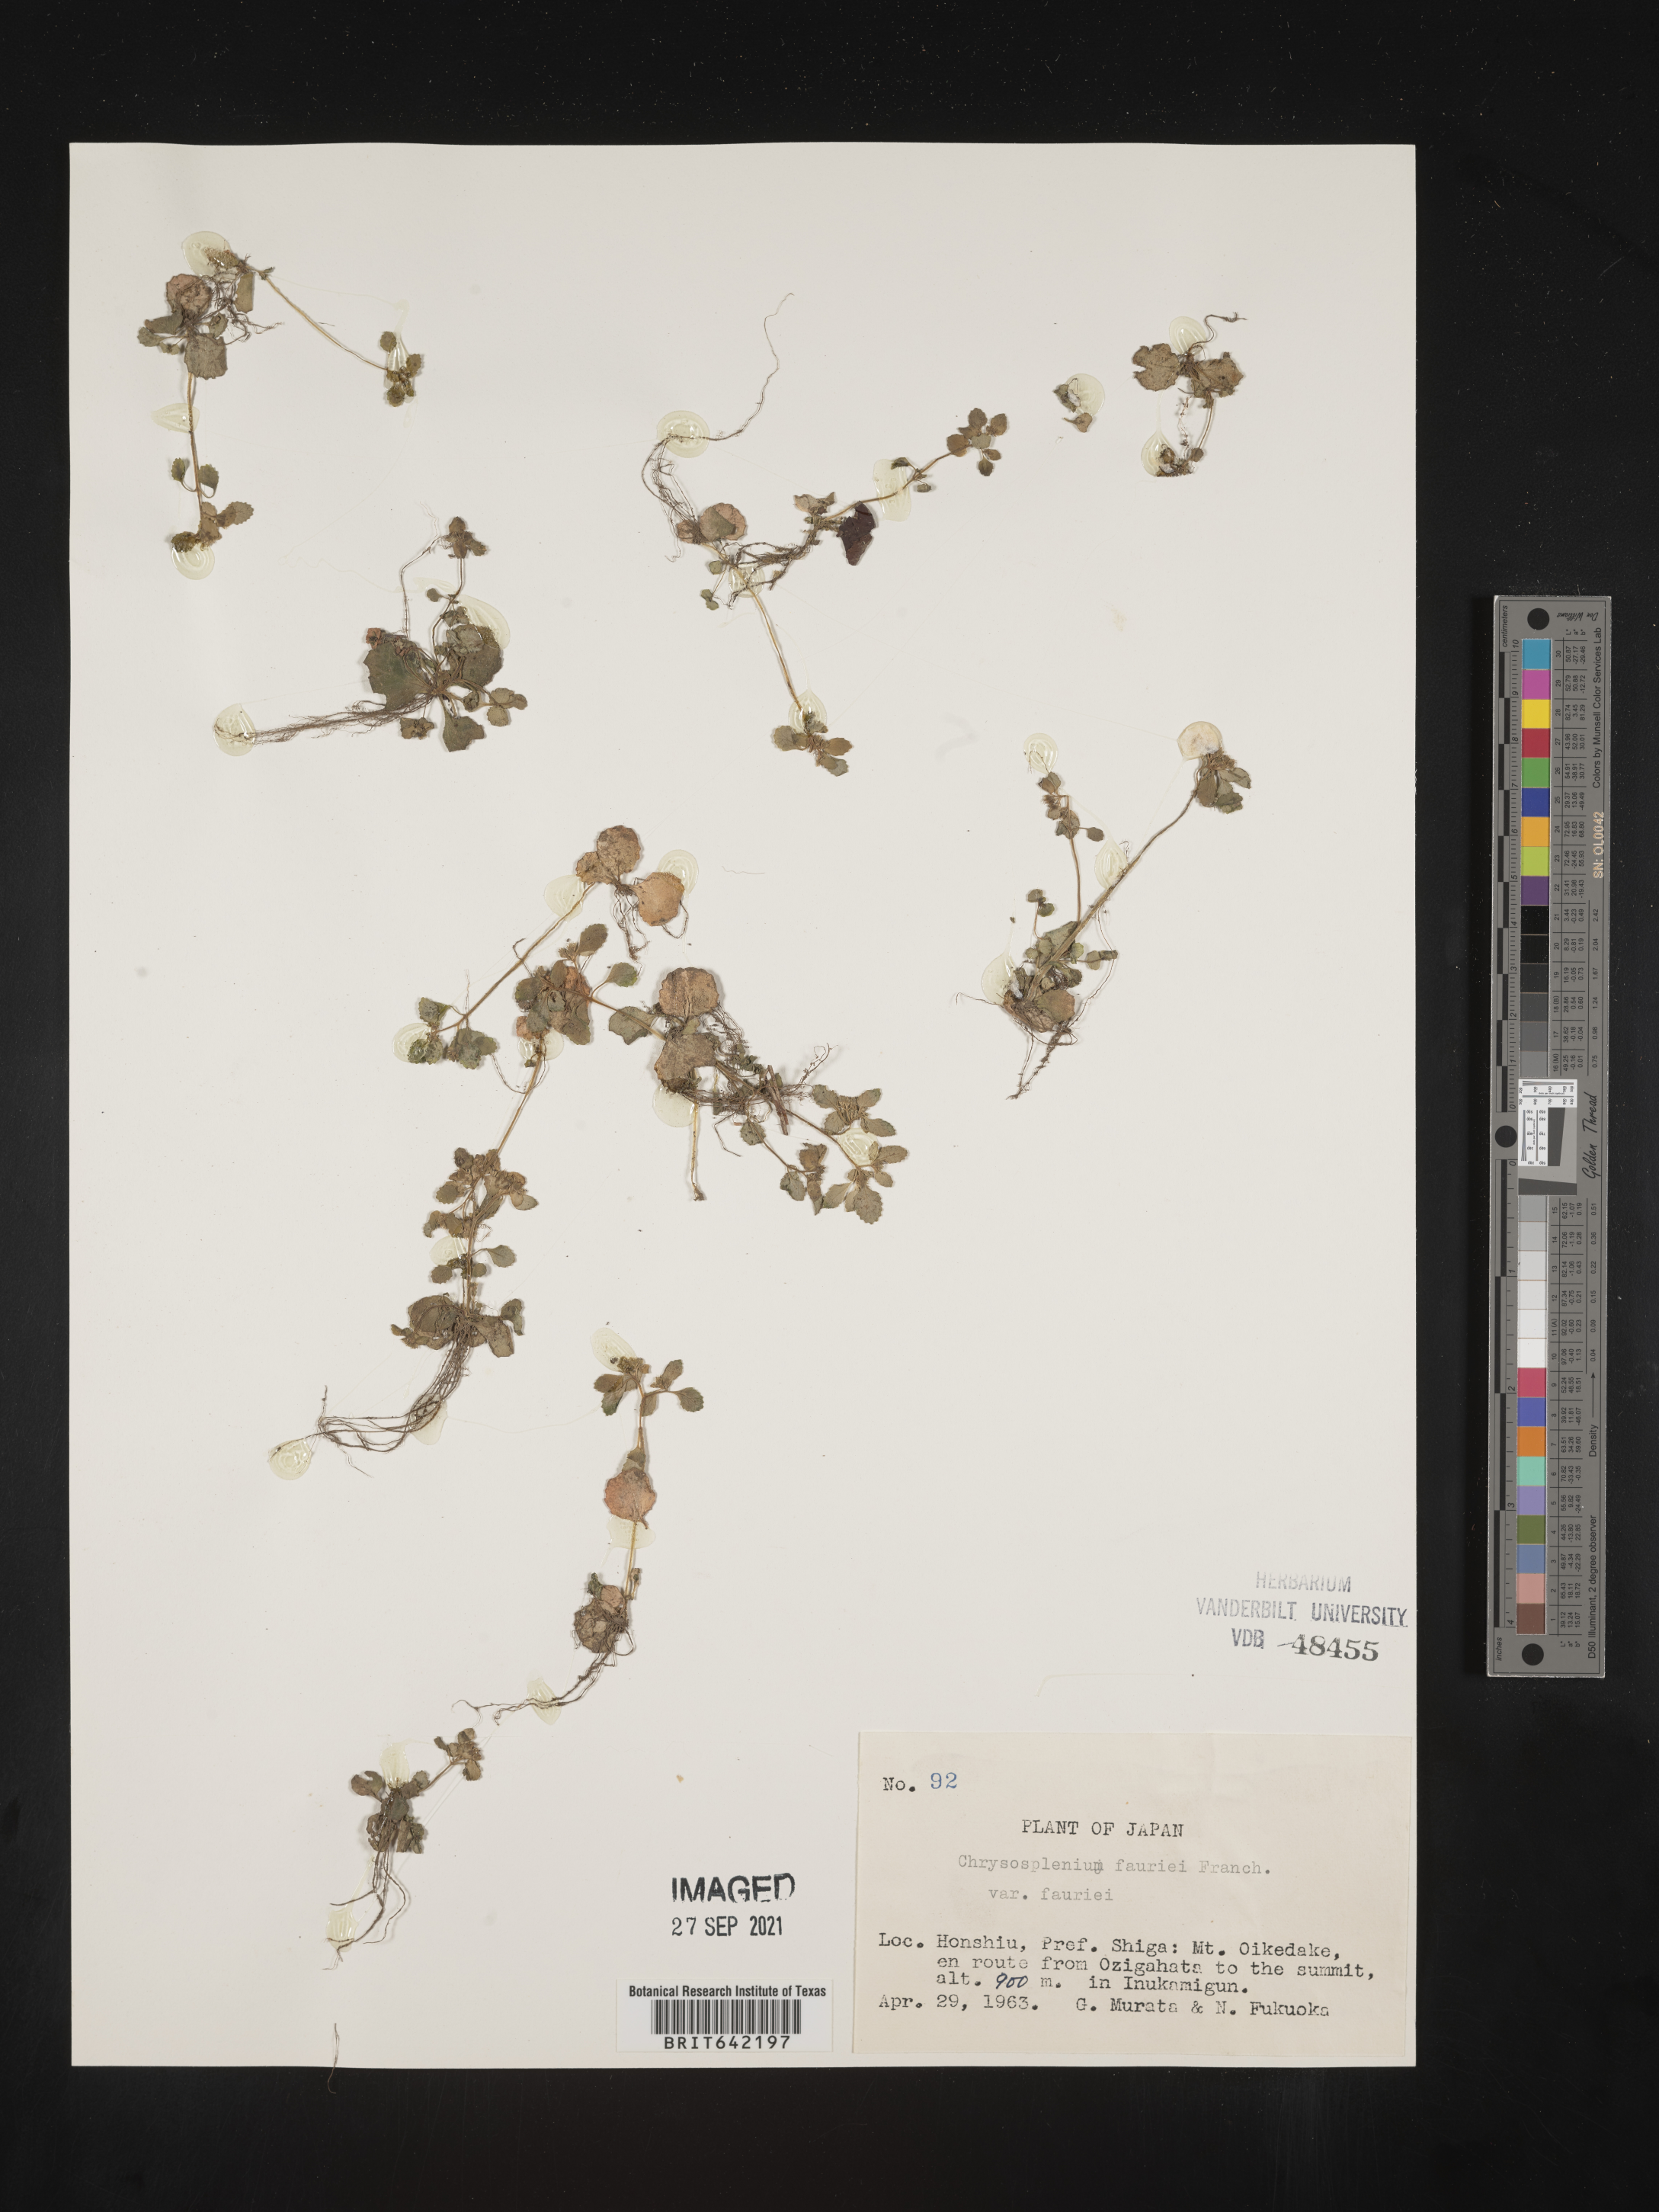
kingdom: Plantae
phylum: Tracheophyta
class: Magnoliopsida
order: Saxifragales
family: Saxifragaceae
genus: Chrysosplenium
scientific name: Chrysosplenium
